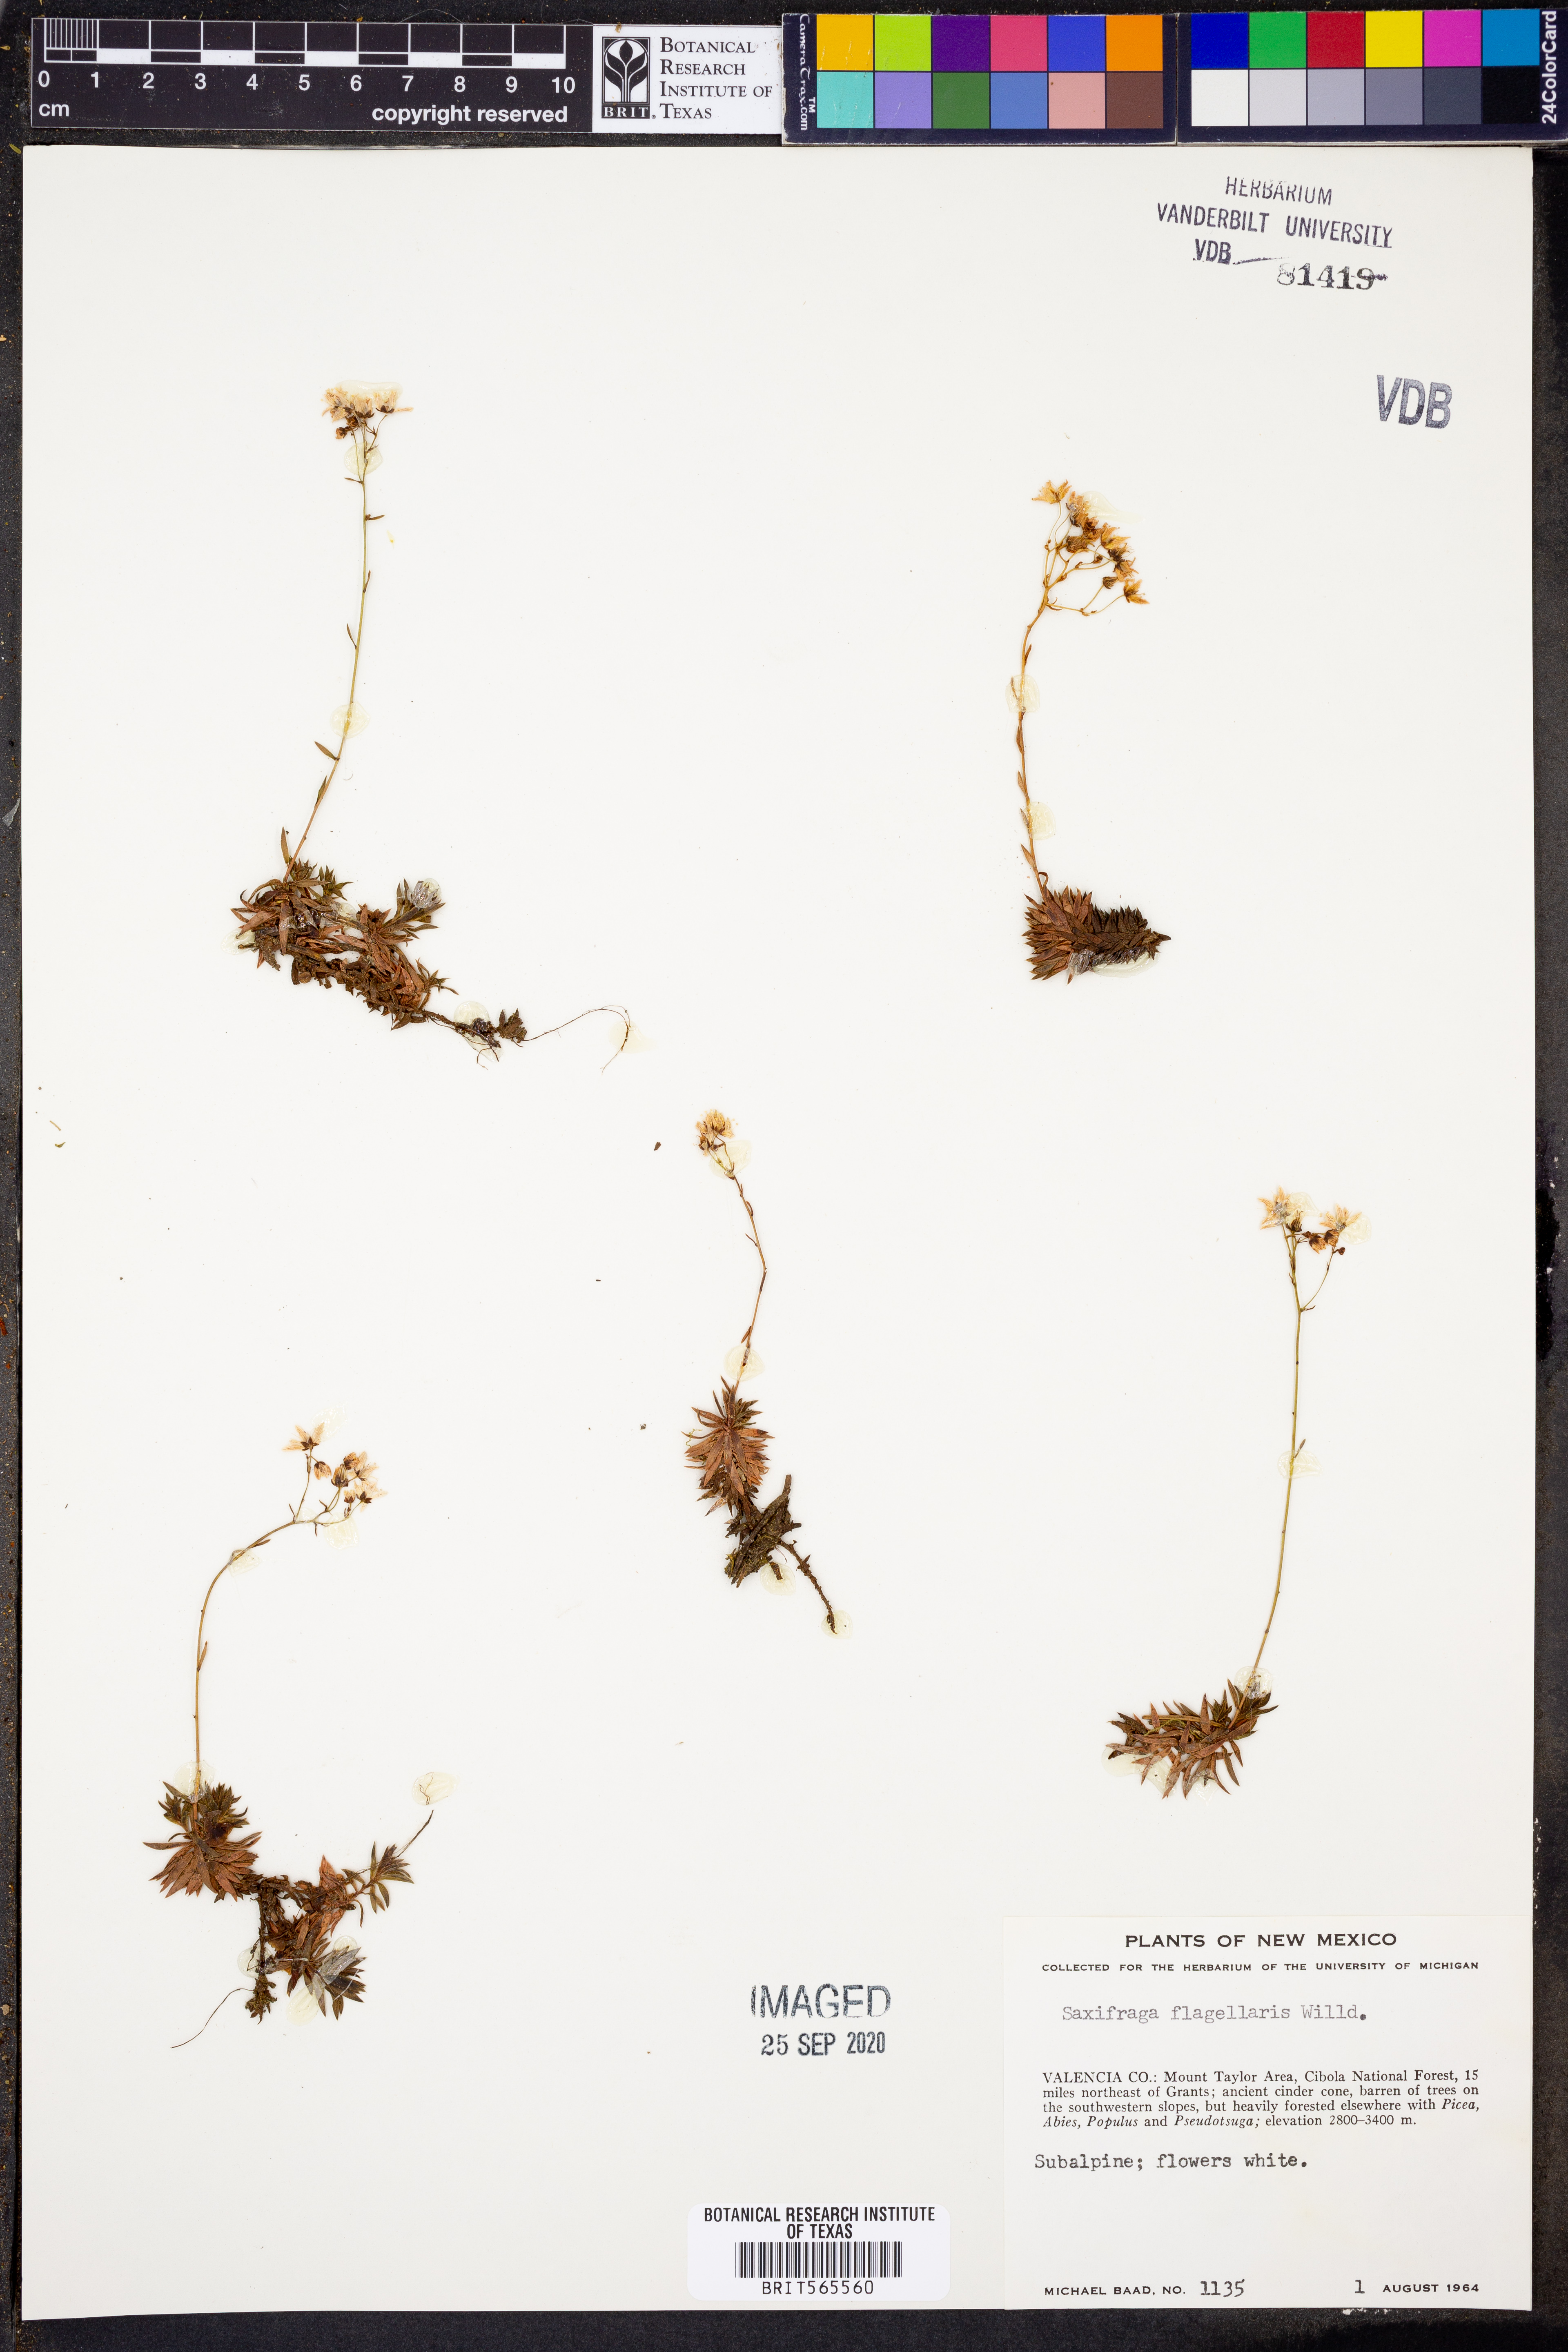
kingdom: Plantae
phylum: Tracheophyta
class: Magnoliopsida
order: Saxifragales
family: Saxifragaceae
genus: Saxifraga
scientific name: Saxifraga flagellaris
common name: Spider saxifrage
